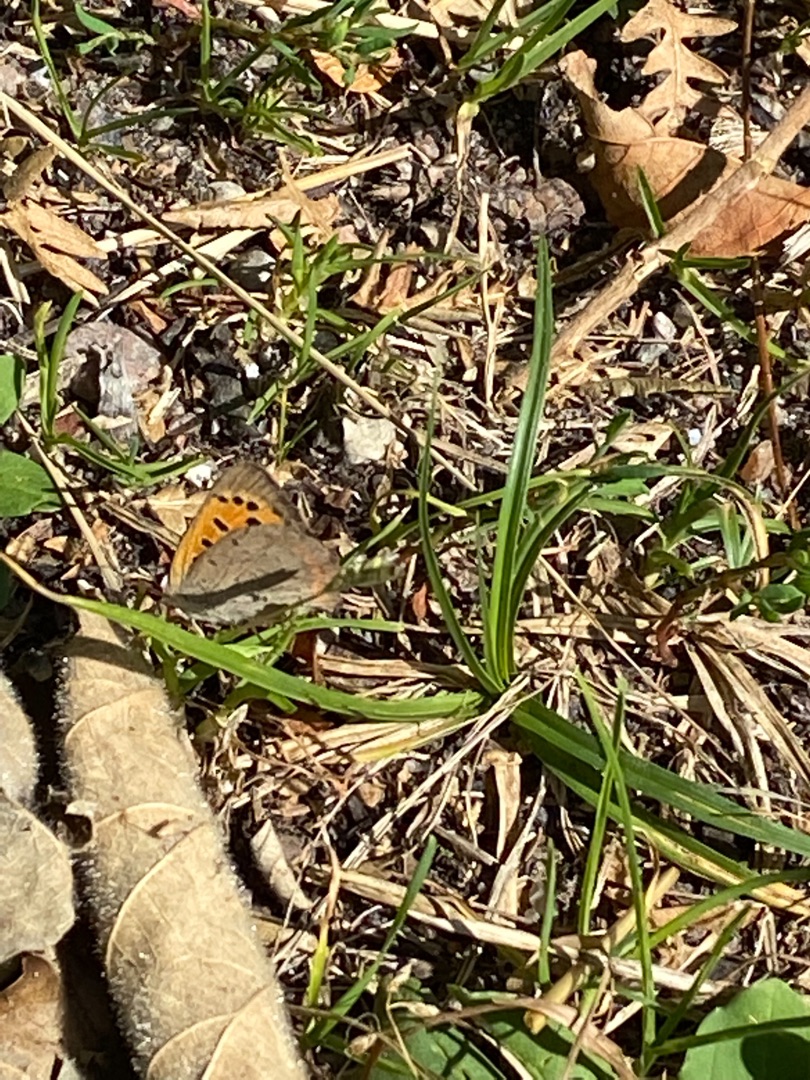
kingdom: Animalia
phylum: Arthropoda
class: Insecta
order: Lepidoptera
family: Lycaenidae
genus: Lycaena
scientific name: Lycaena phlaeas
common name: Lille ildfugl
